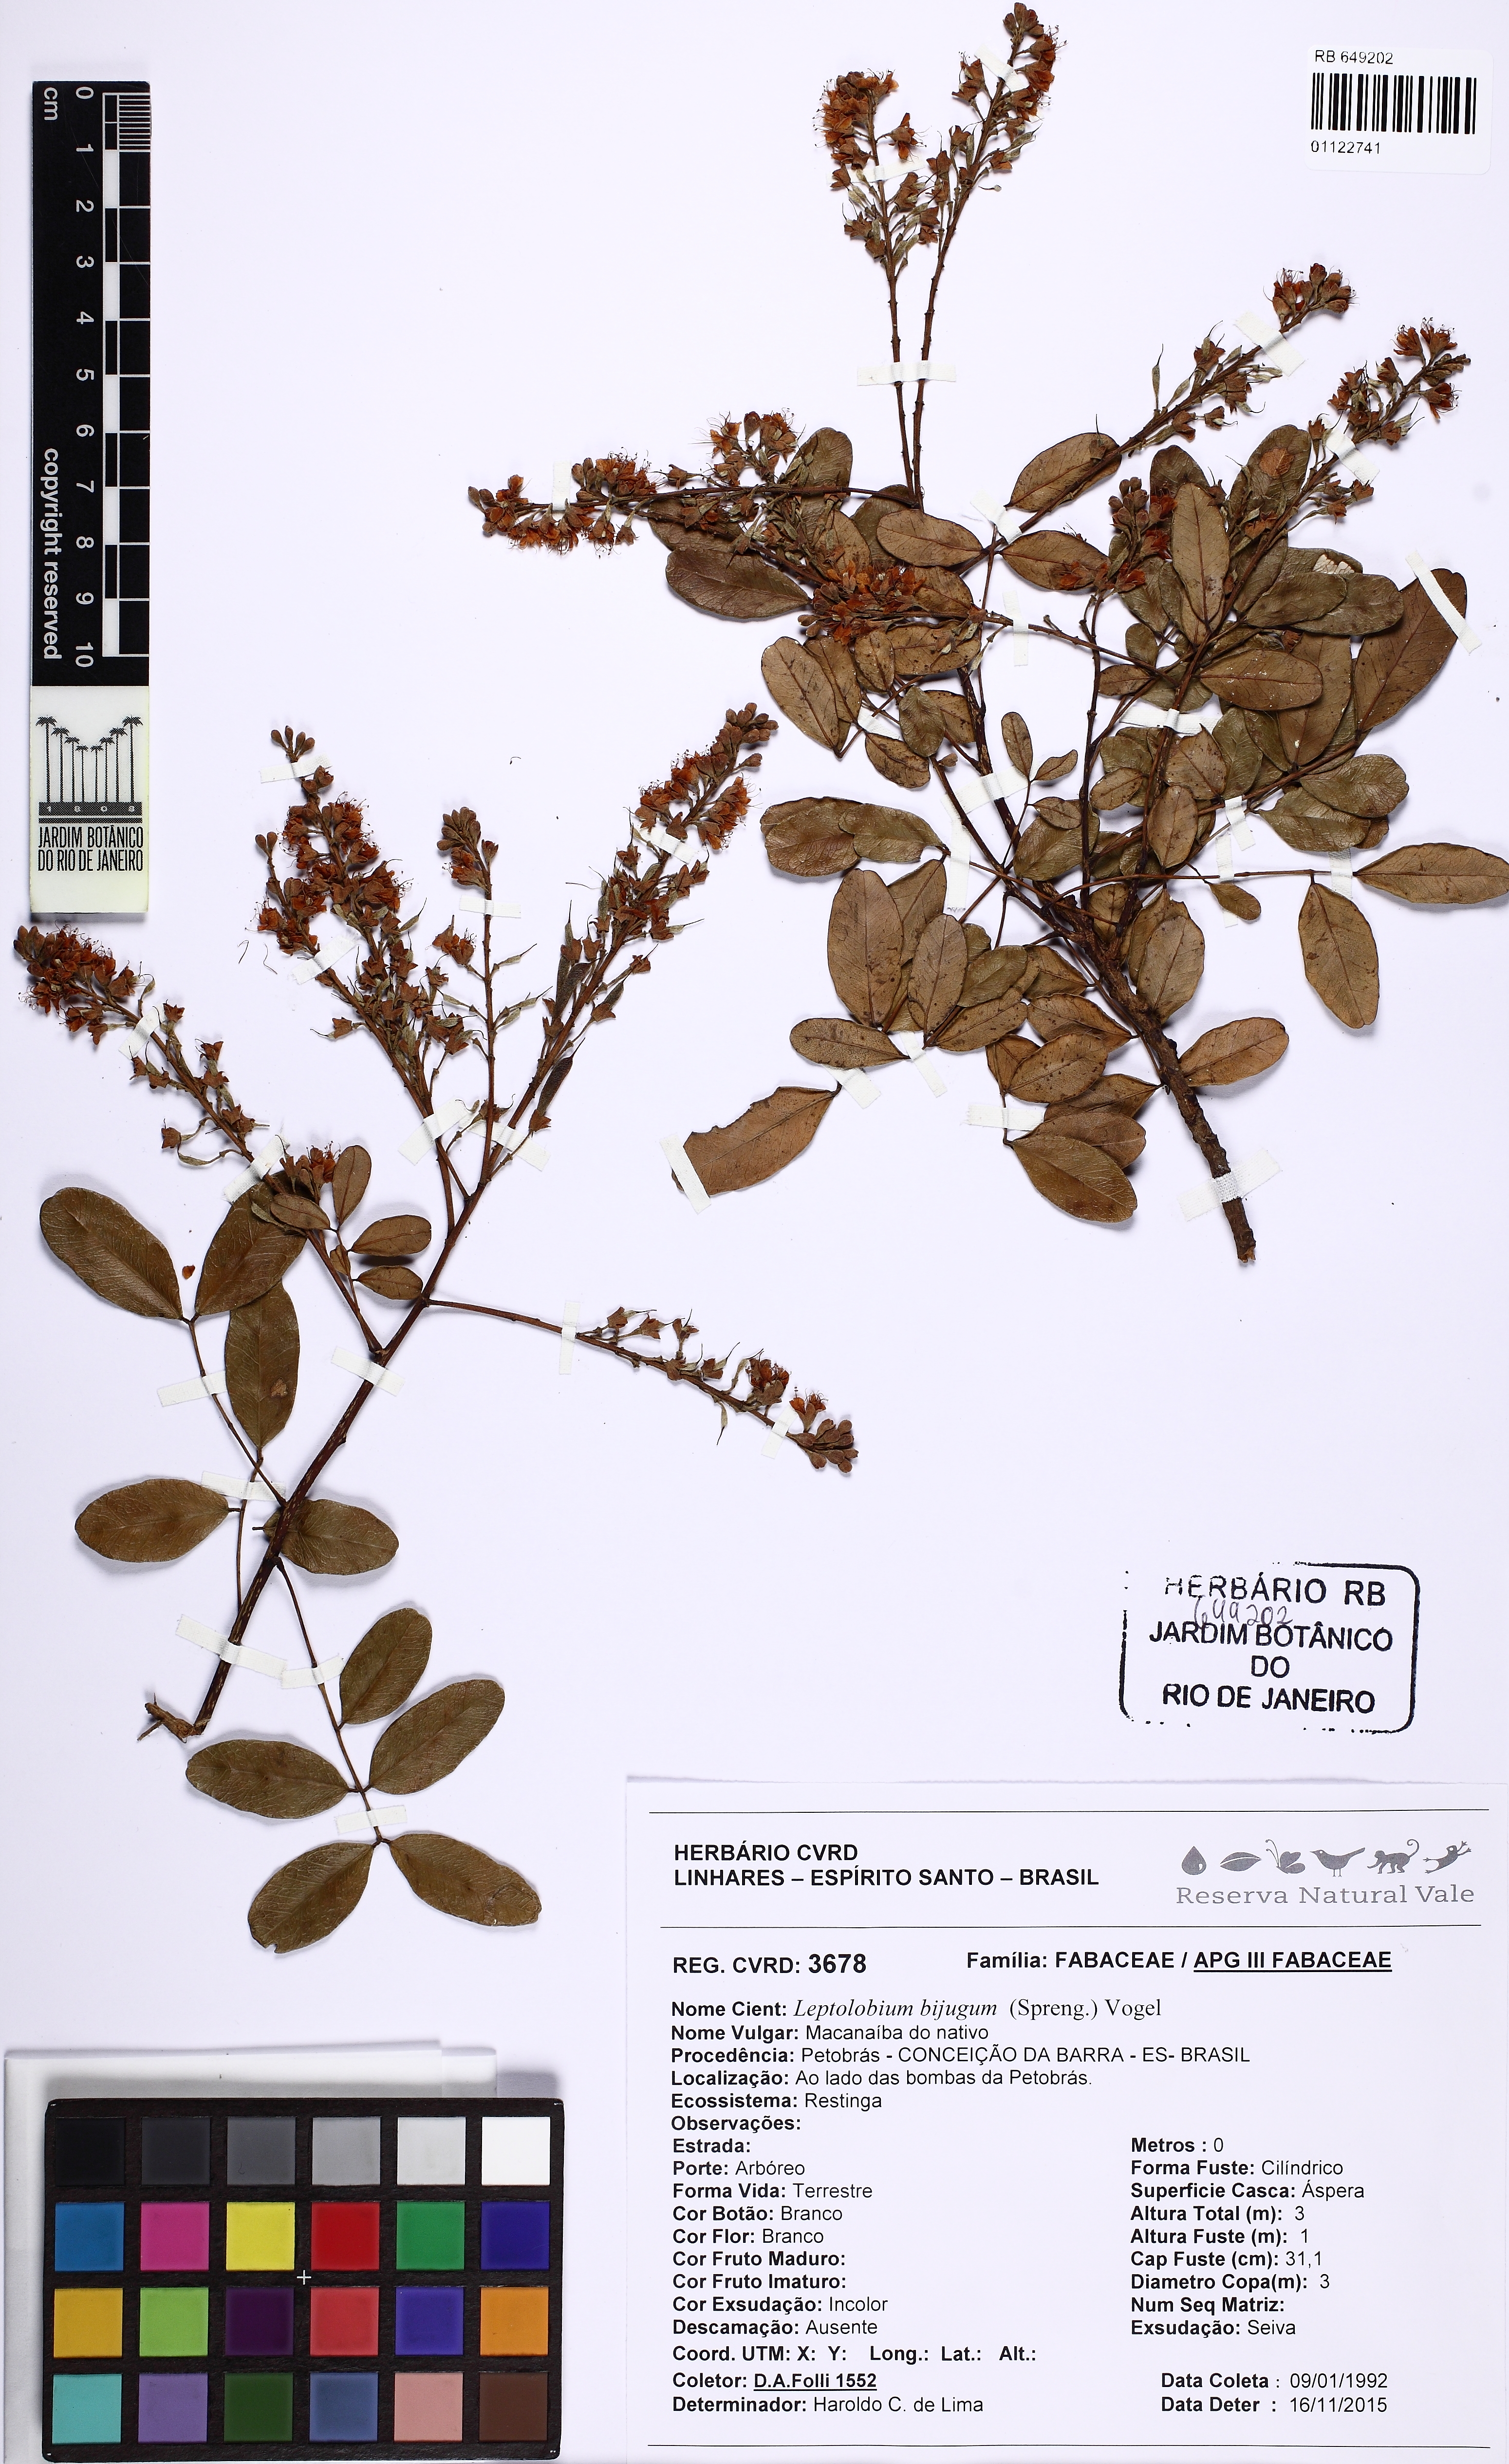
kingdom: Plantae
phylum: Tracheophyta
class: Magnoliopsida
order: Fabales
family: Fabaceae
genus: Leptolobium
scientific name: Leptolobium bijugum
